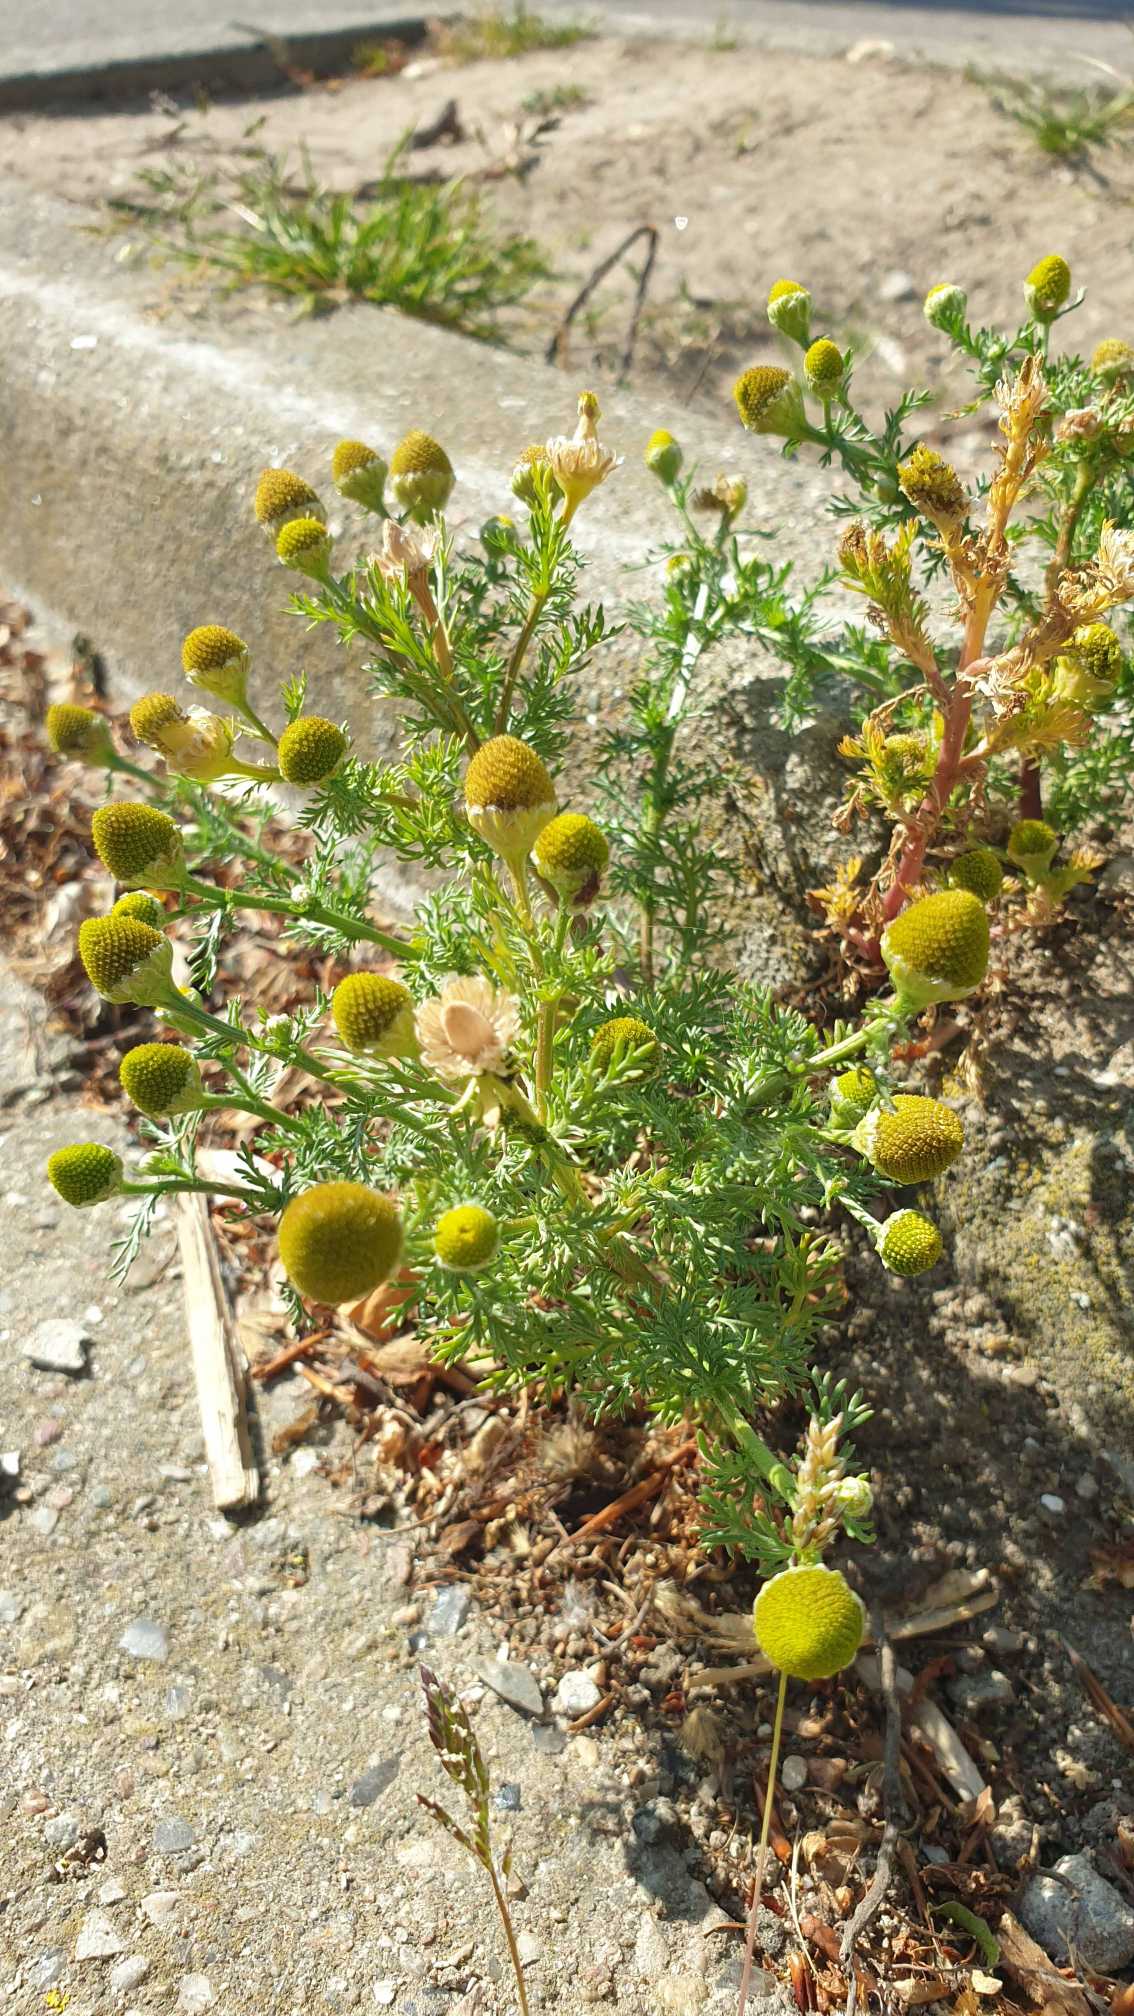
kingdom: Plantae
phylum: Tracheophyta
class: Magnoliopsida
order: Asterales
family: Asteraceae
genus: Matricaria
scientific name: Matricaria discoidea
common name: Skive-kamille
